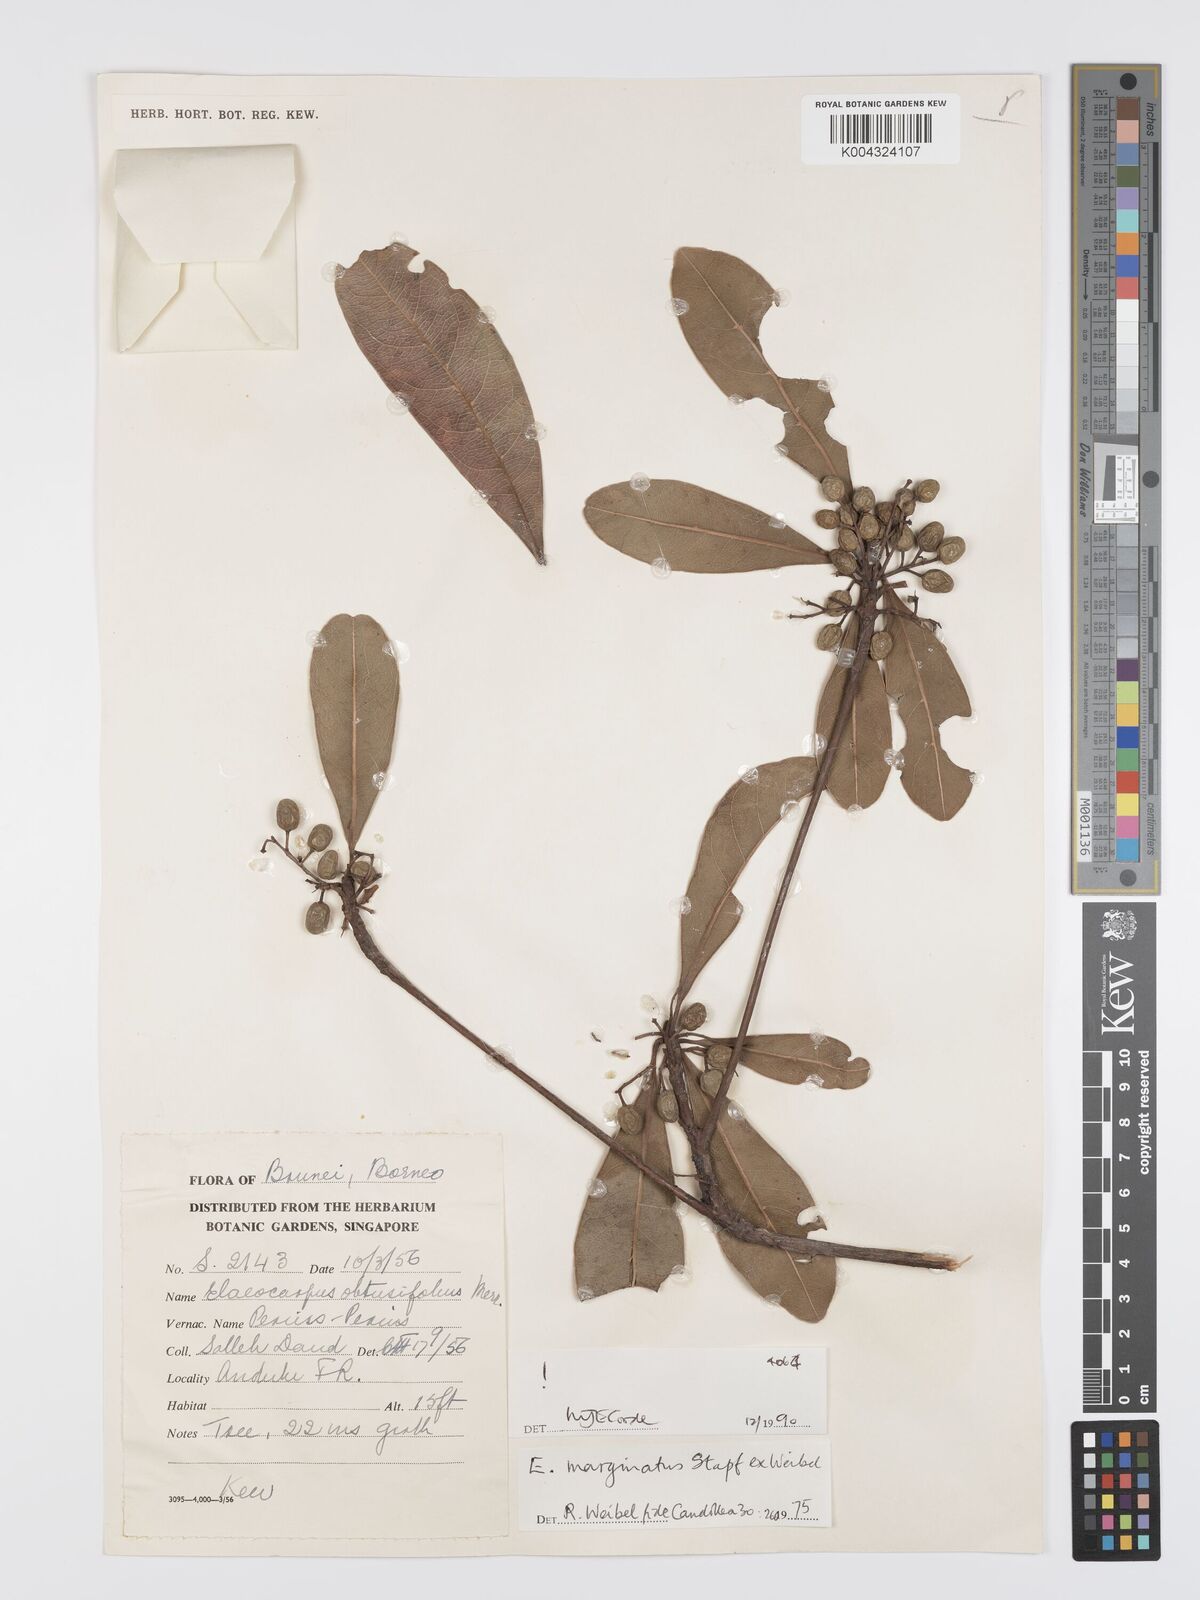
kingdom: Plantae
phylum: Tracheophyta
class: Magnoliopsida
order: Oxalidales
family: Elaeocarpaceae
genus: Elaeocarpus
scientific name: Elaeocarpus marginatus
